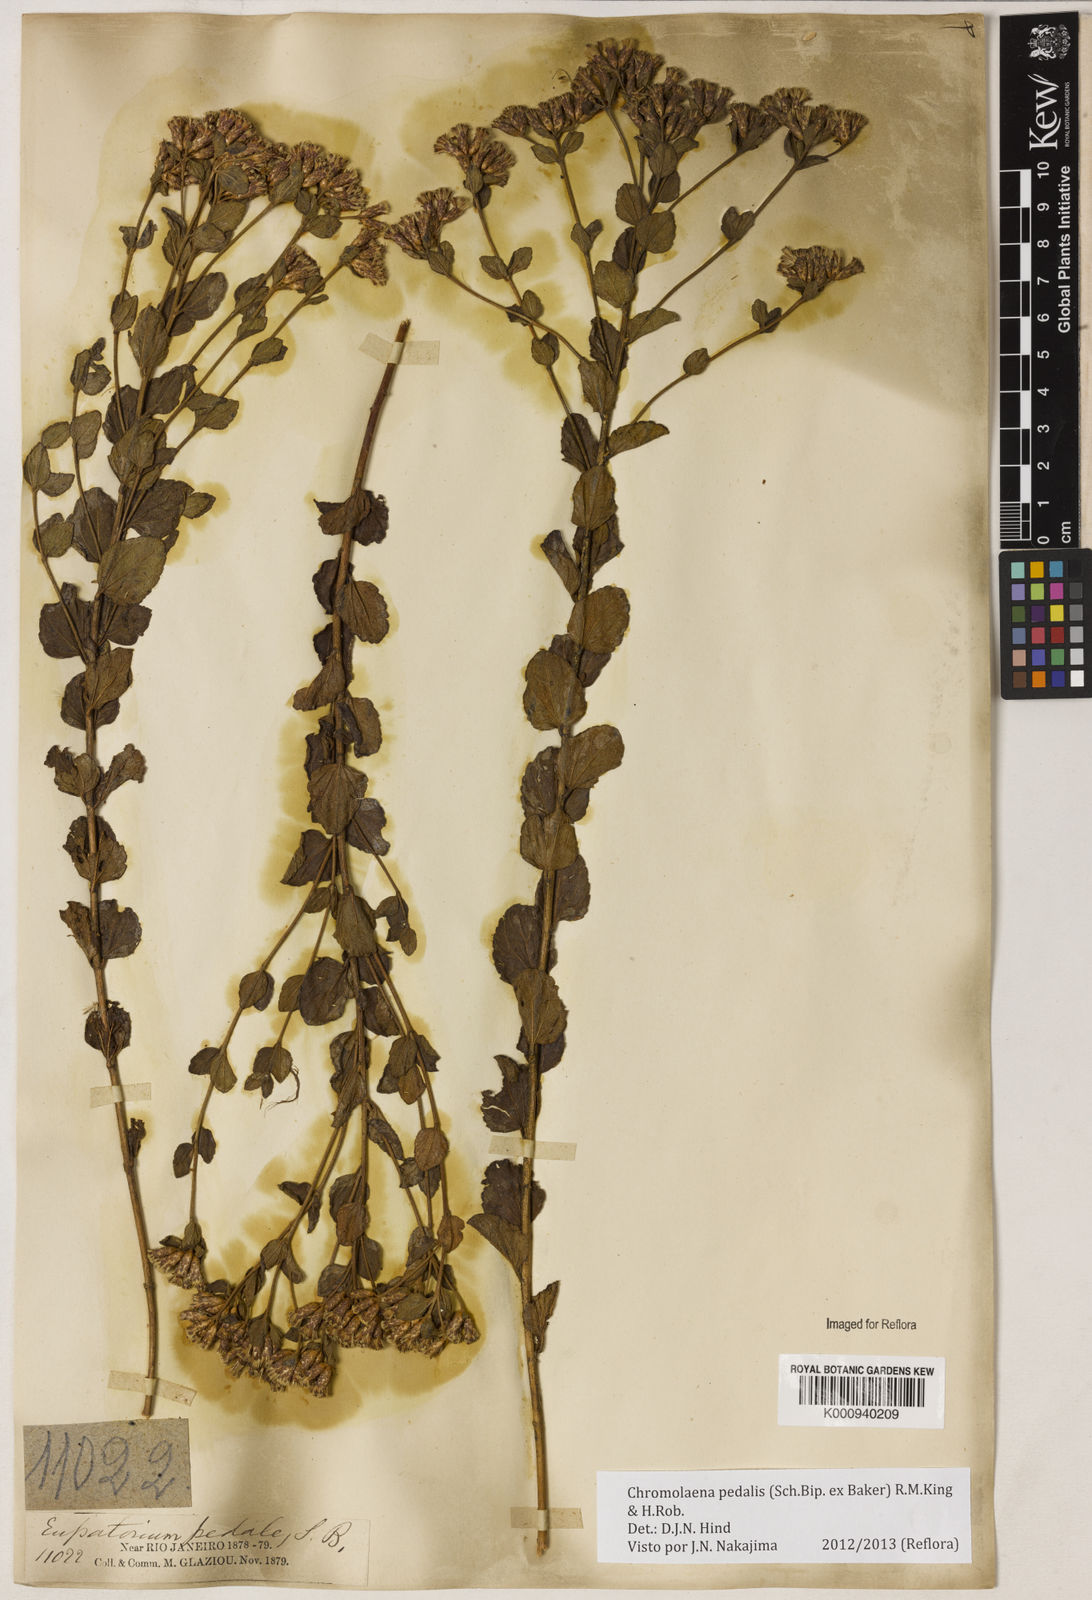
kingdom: Plantae
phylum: Tracheophyta
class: Magnoliopsida
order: Asterales
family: Asteraceae
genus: Chromolaena
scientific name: Chromolaena pedalis
